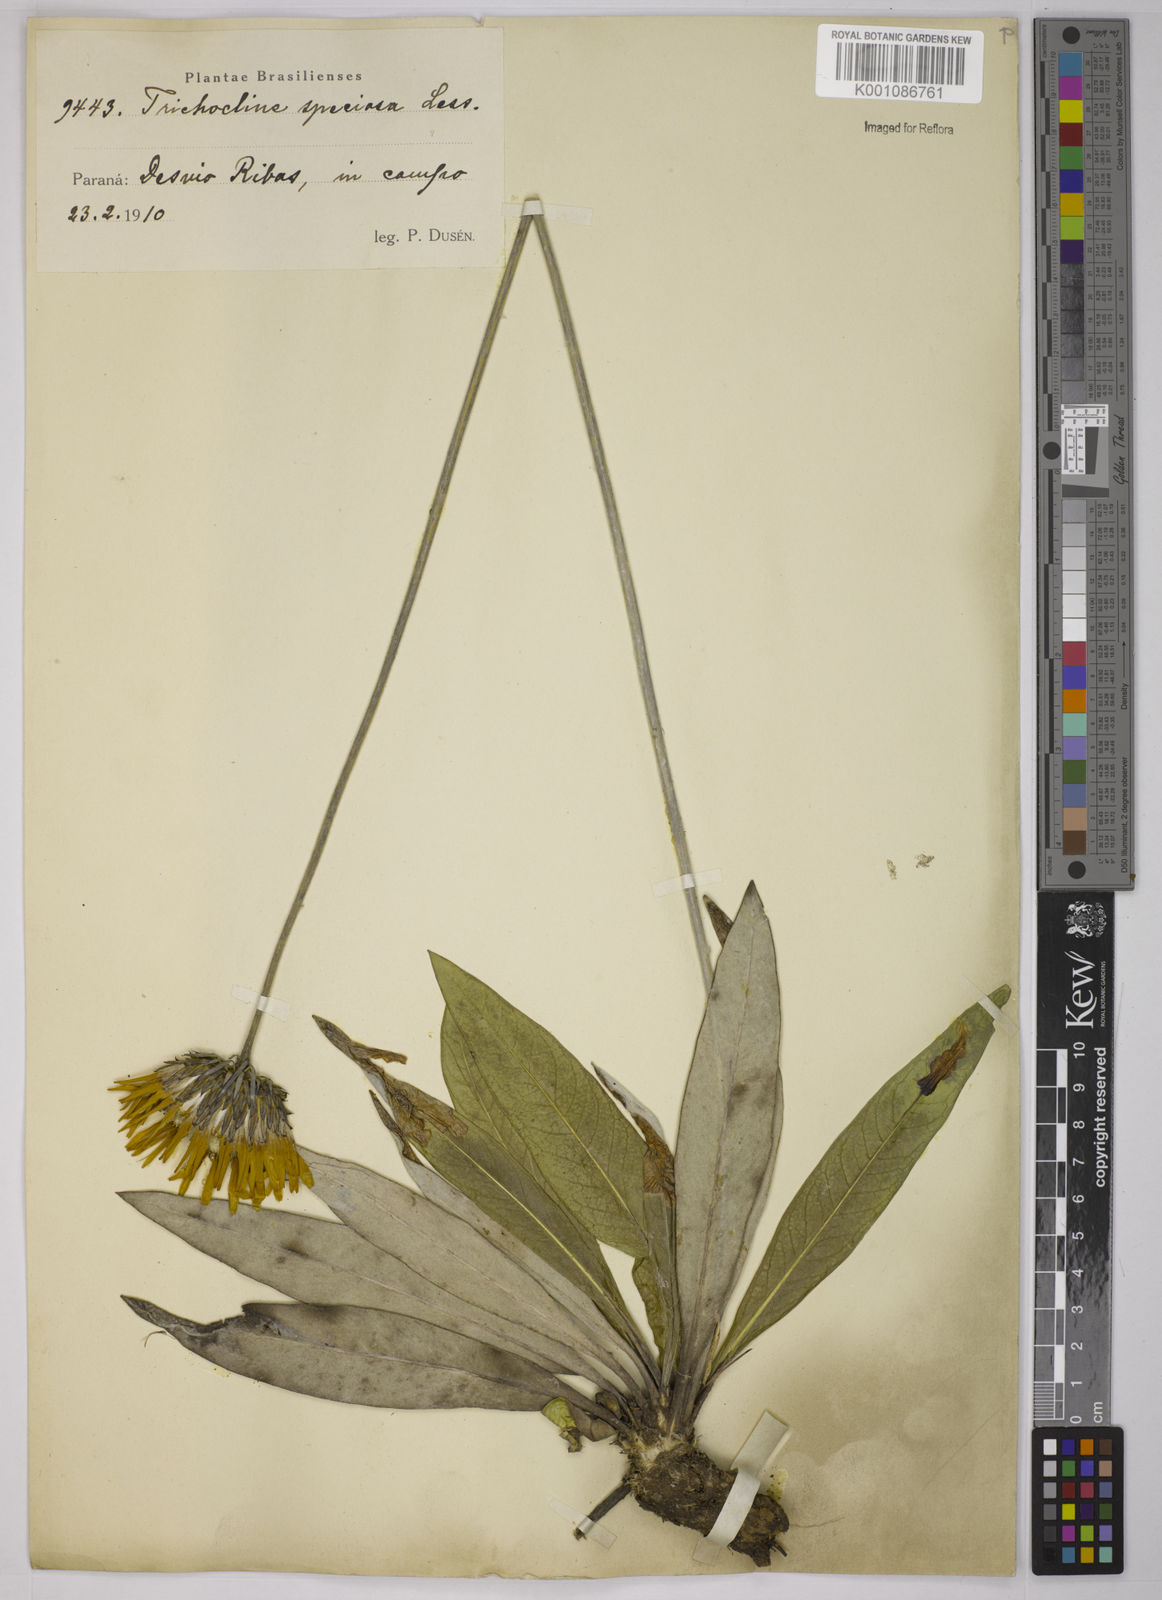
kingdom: Plantae
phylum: Tracheophyta
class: Magnoliopsida
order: Asterales
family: Asteraceae
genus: Trichocline
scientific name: Trichocline speciosa
